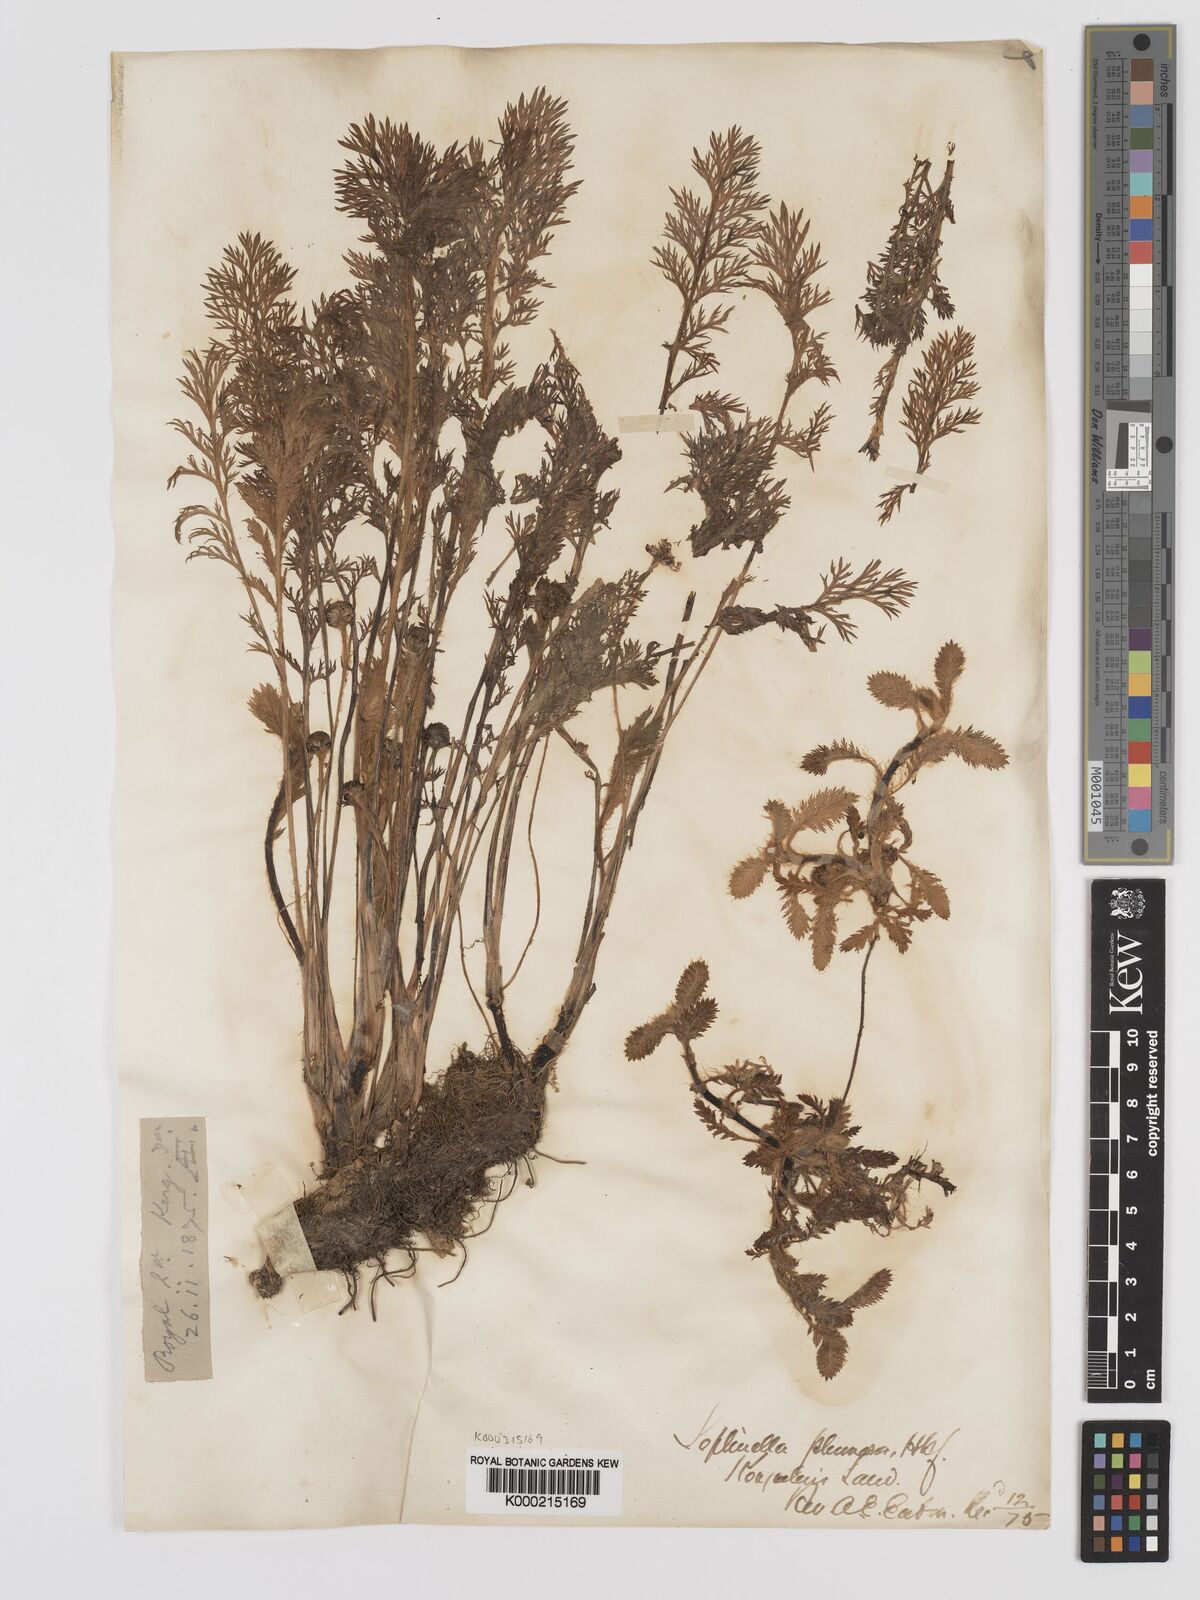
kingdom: Plantae
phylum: Tracheophyta
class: Magnoliopsida
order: Asterales
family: Asteraceae
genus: Leptinella
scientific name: Leptinella
